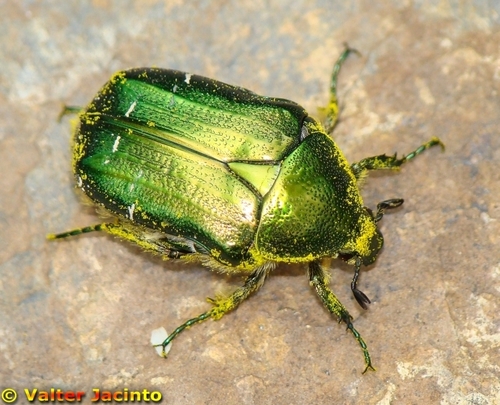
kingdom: Animalia
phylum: Arthropoda
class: Insecta
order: Coleoptera
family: Scarabaeidae
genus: Cetonia
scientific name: Cetonia
